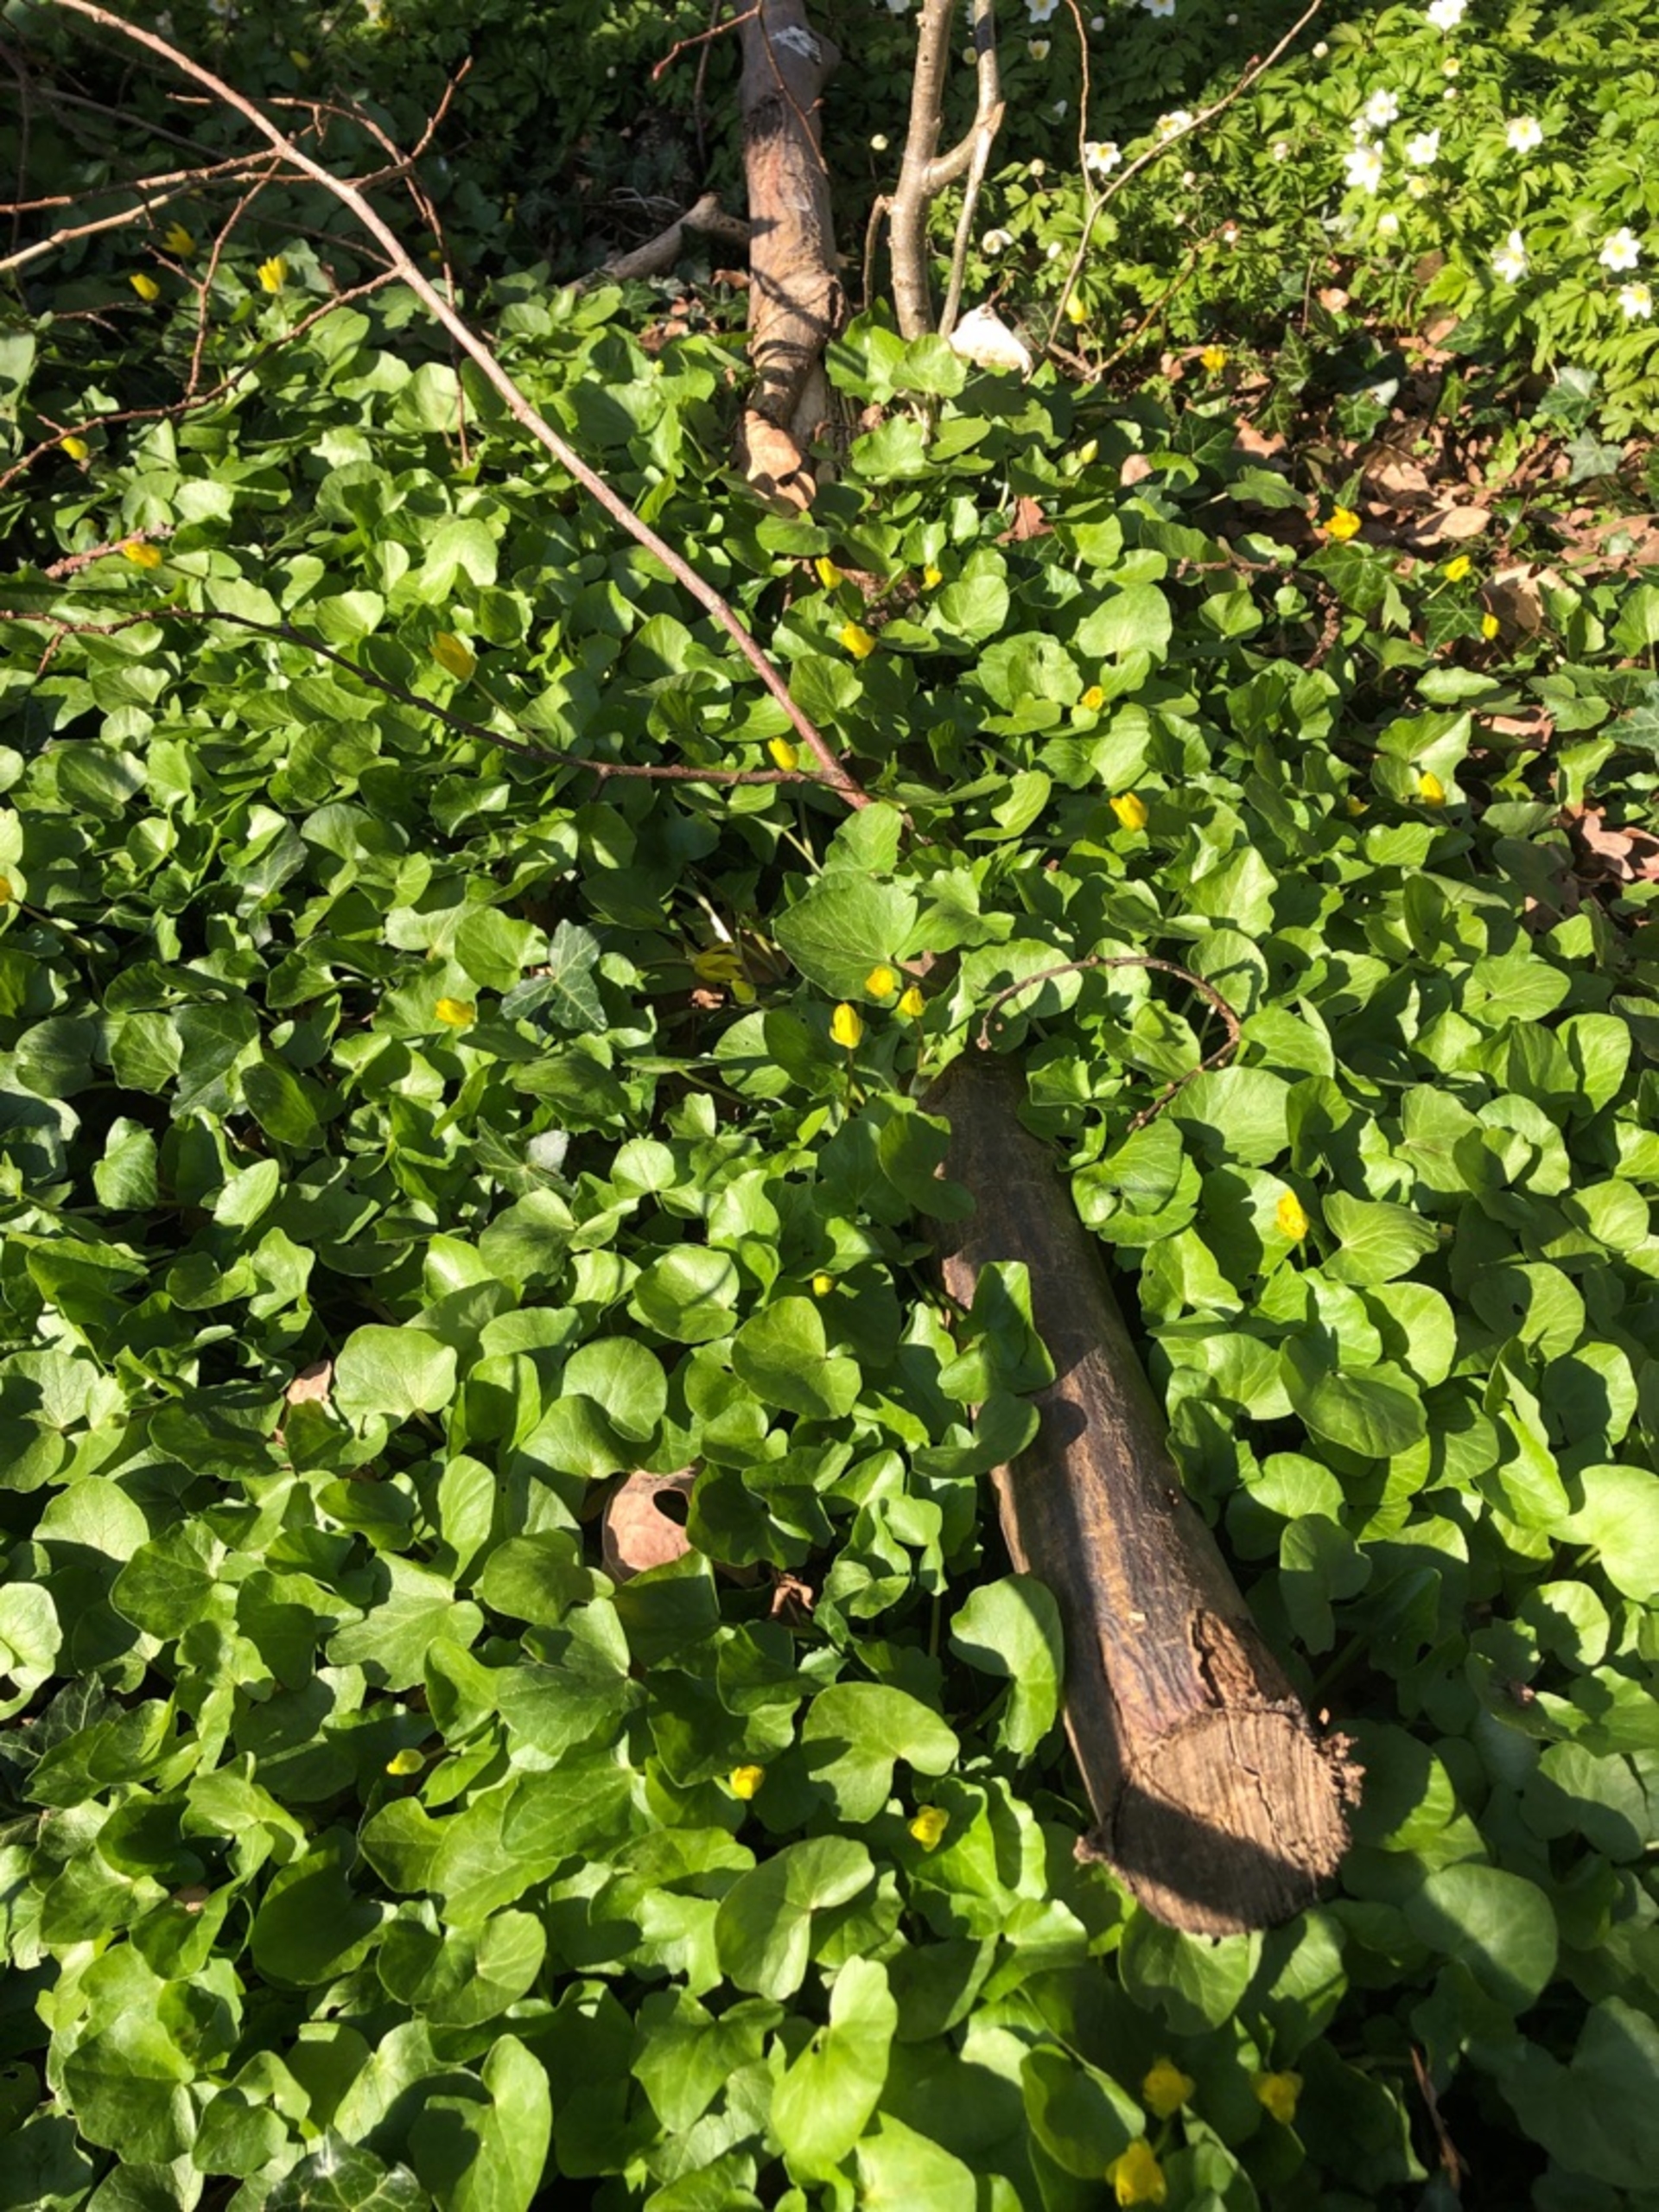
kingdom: Plantae
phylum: Tracheophyta
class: Magnoliopsida
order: Ranunculales
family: Ranunculaceae
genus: Ficaria
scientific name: Ficaria verna
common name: Vorterod
